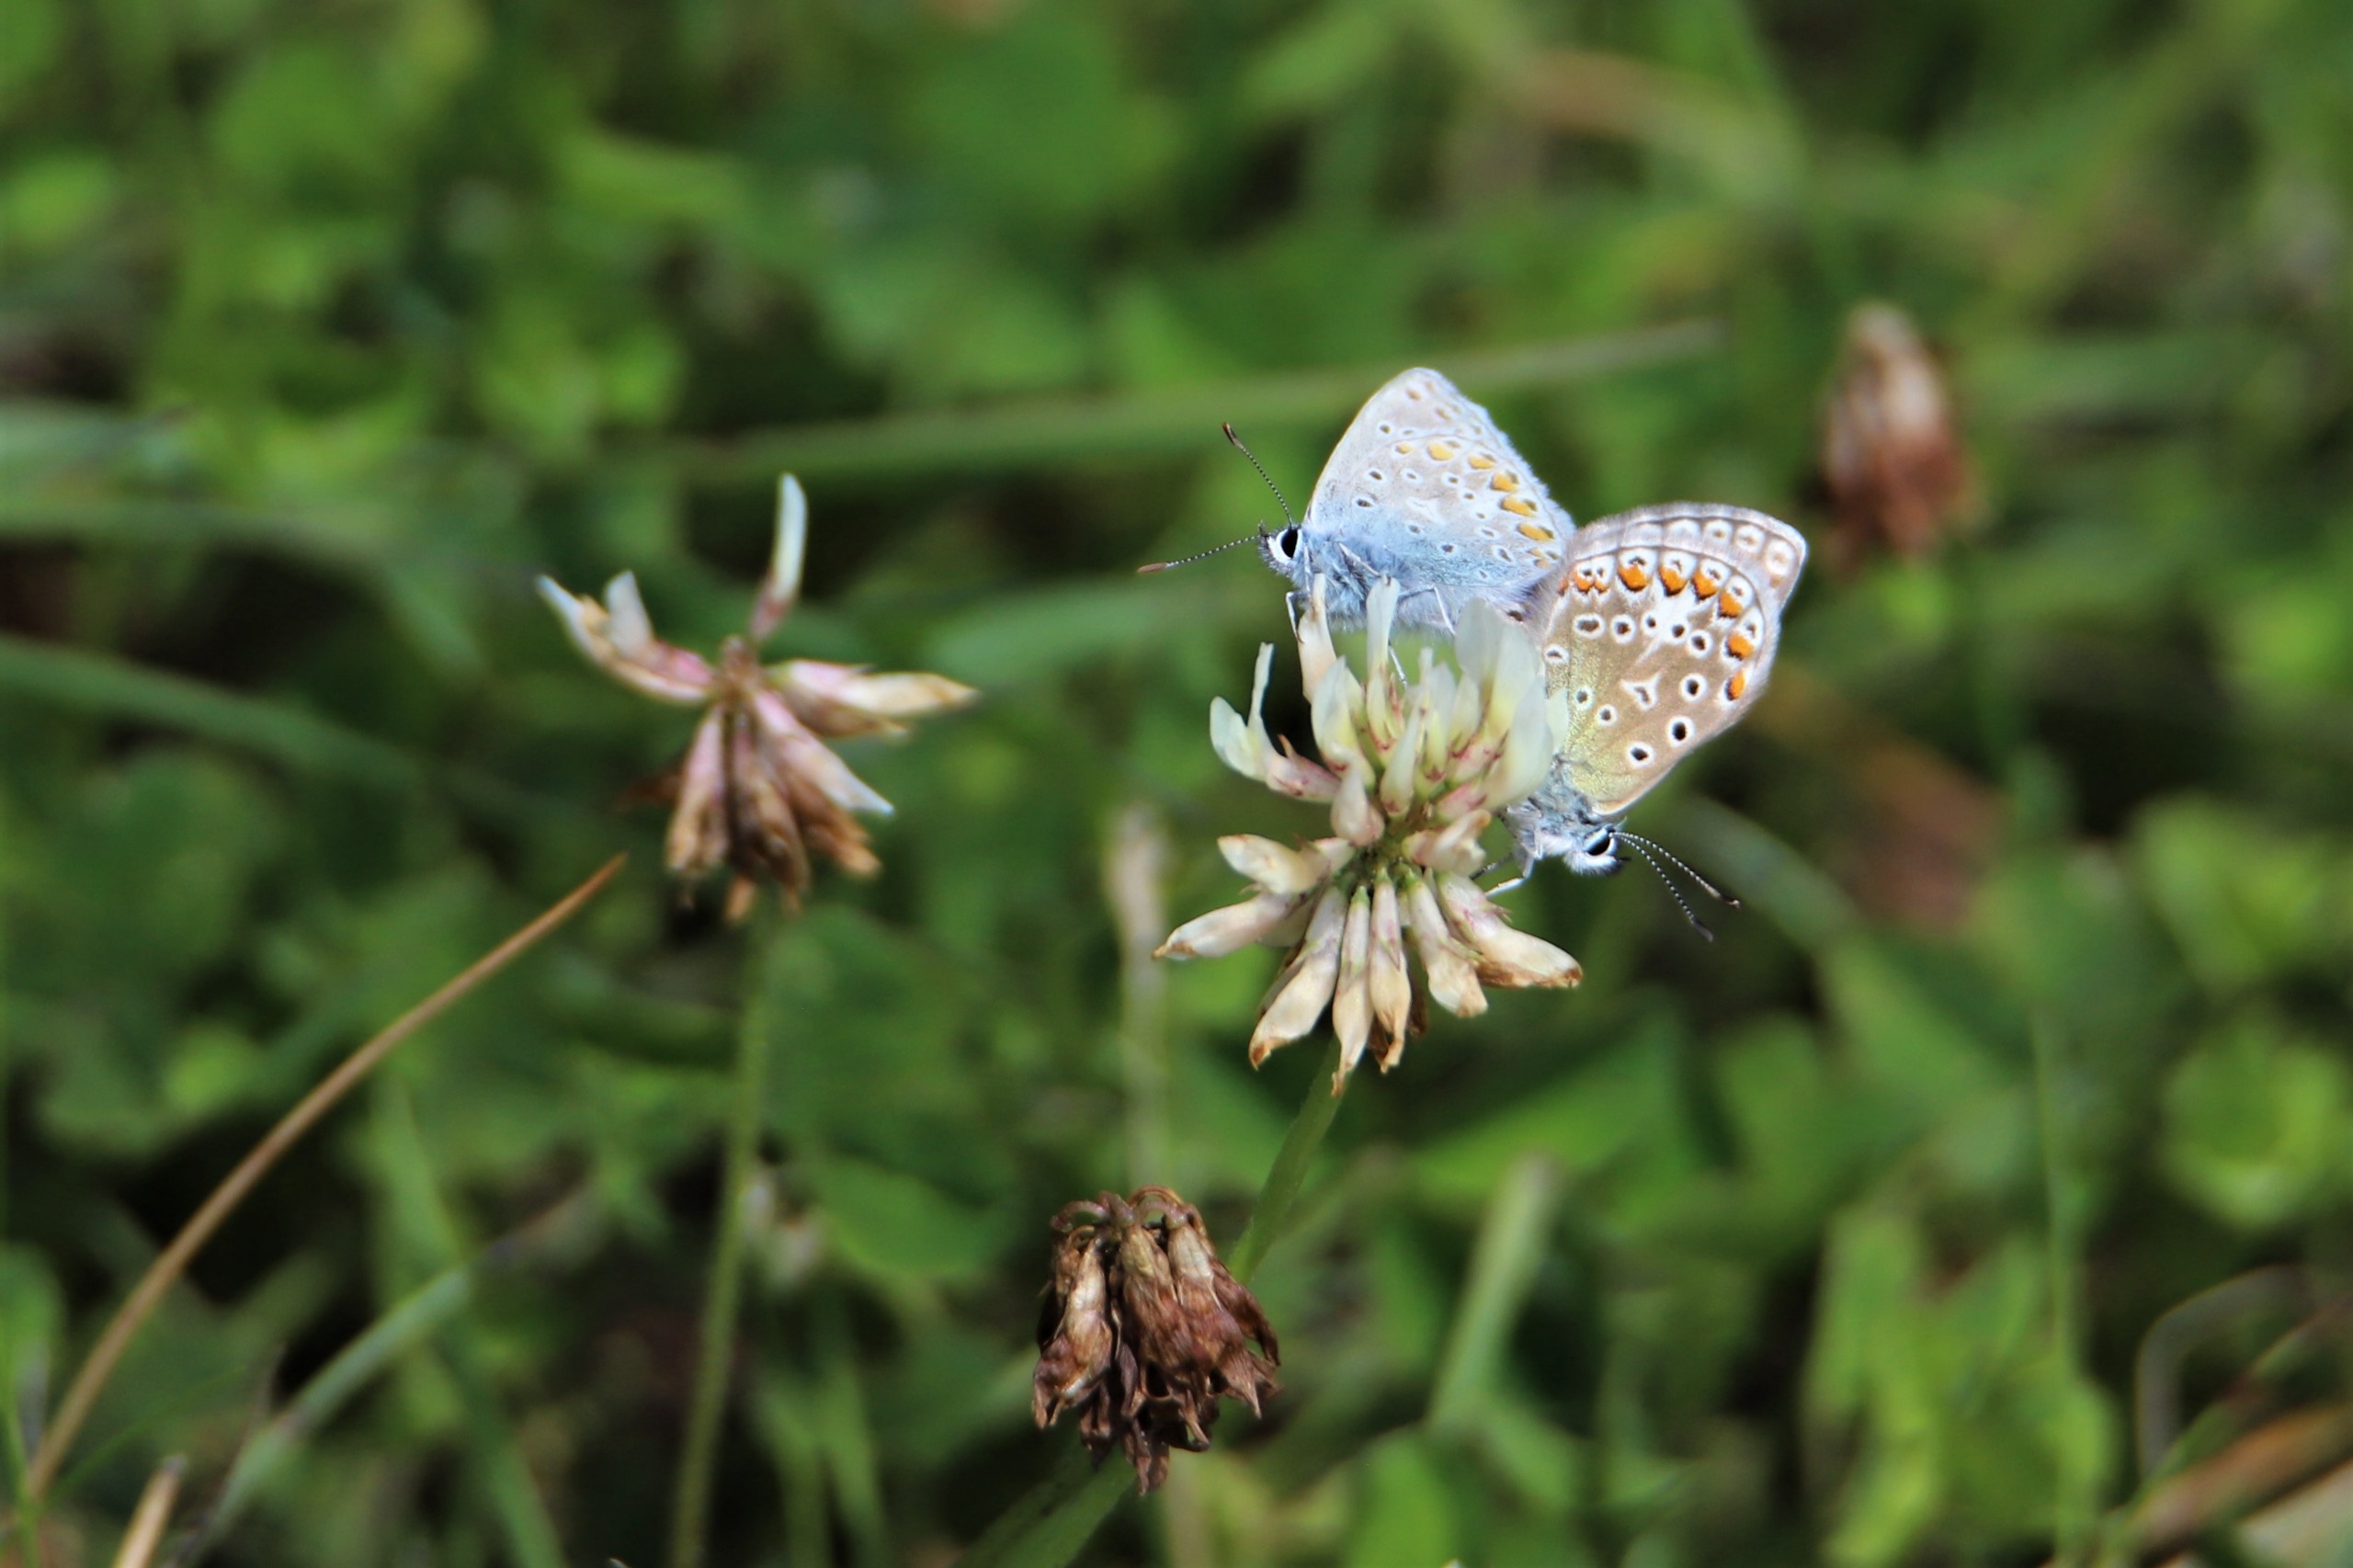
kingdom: Animalia
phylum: Arthropoda
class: Insecta
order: Lepidoptera
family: Lycaenidae
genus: Polyommatus
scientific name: Polyommatus icarus
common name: Almindelig blåfugl
